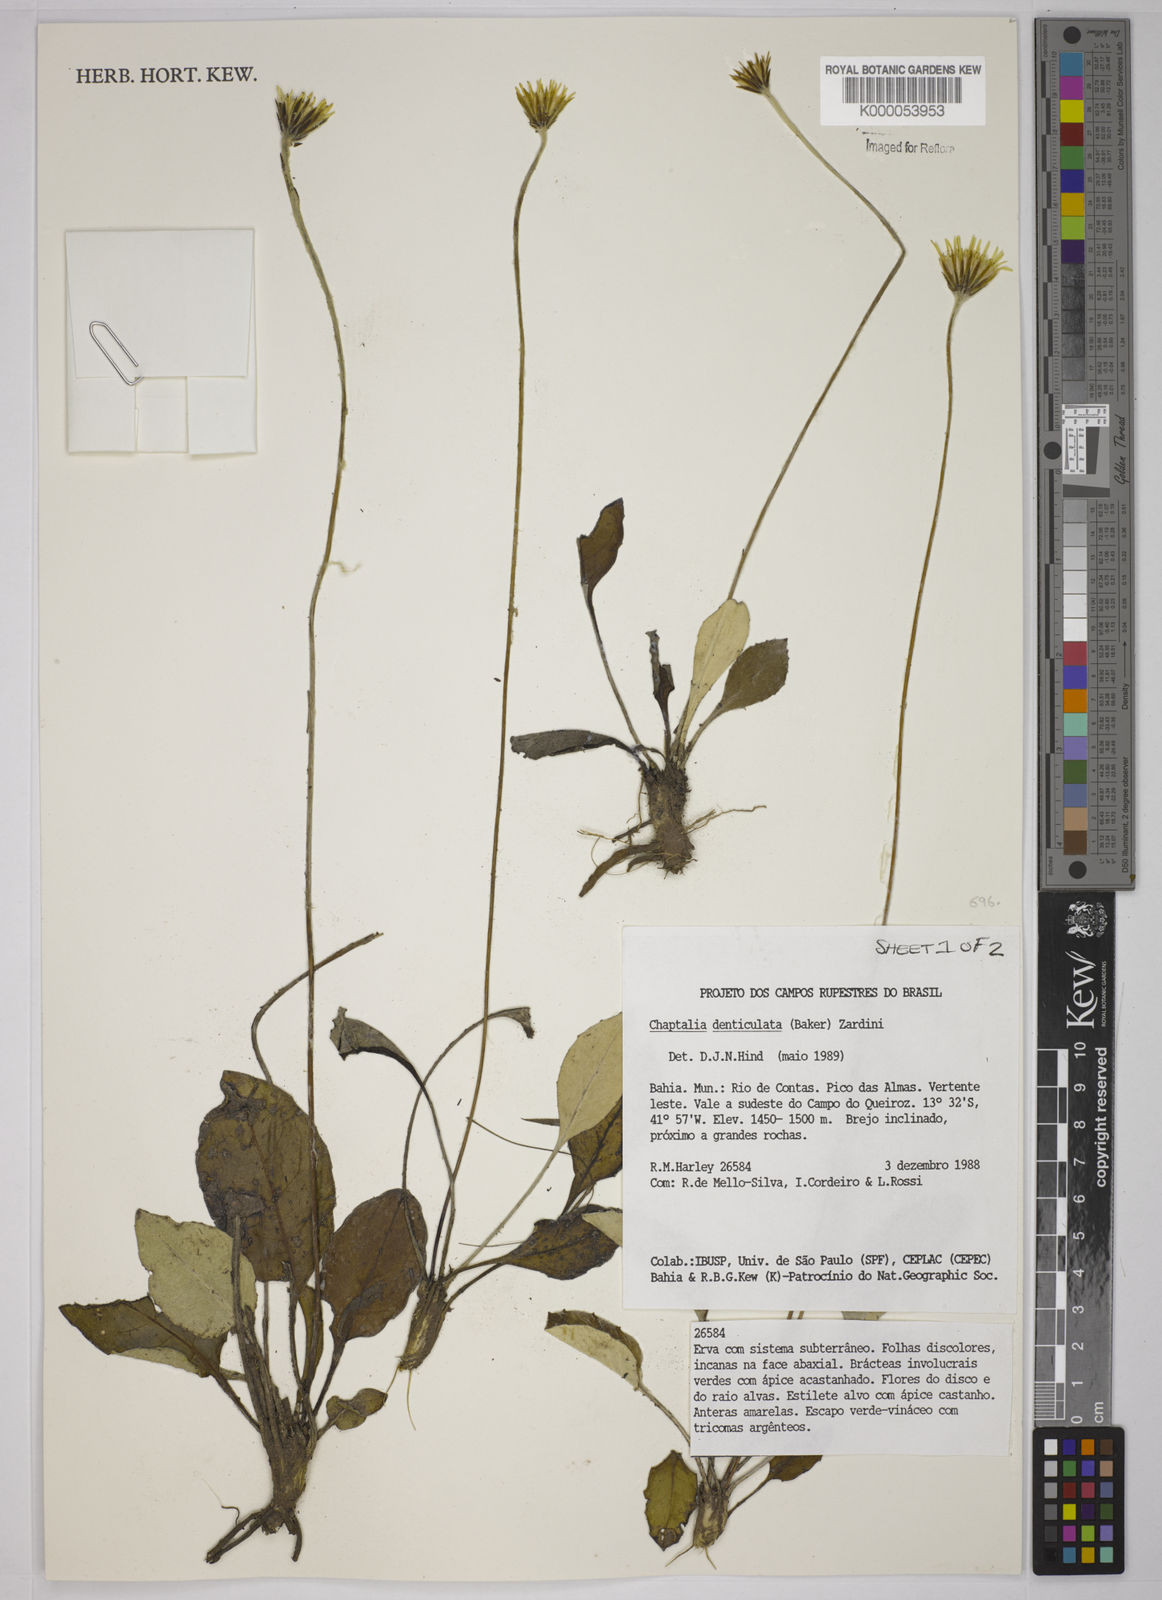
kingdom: Plantae
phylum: Tracheophyta
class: Magnoliopsida
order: Asterales
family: Asteraceae
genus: Chaptalia
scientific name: Chaptalia denticulata
